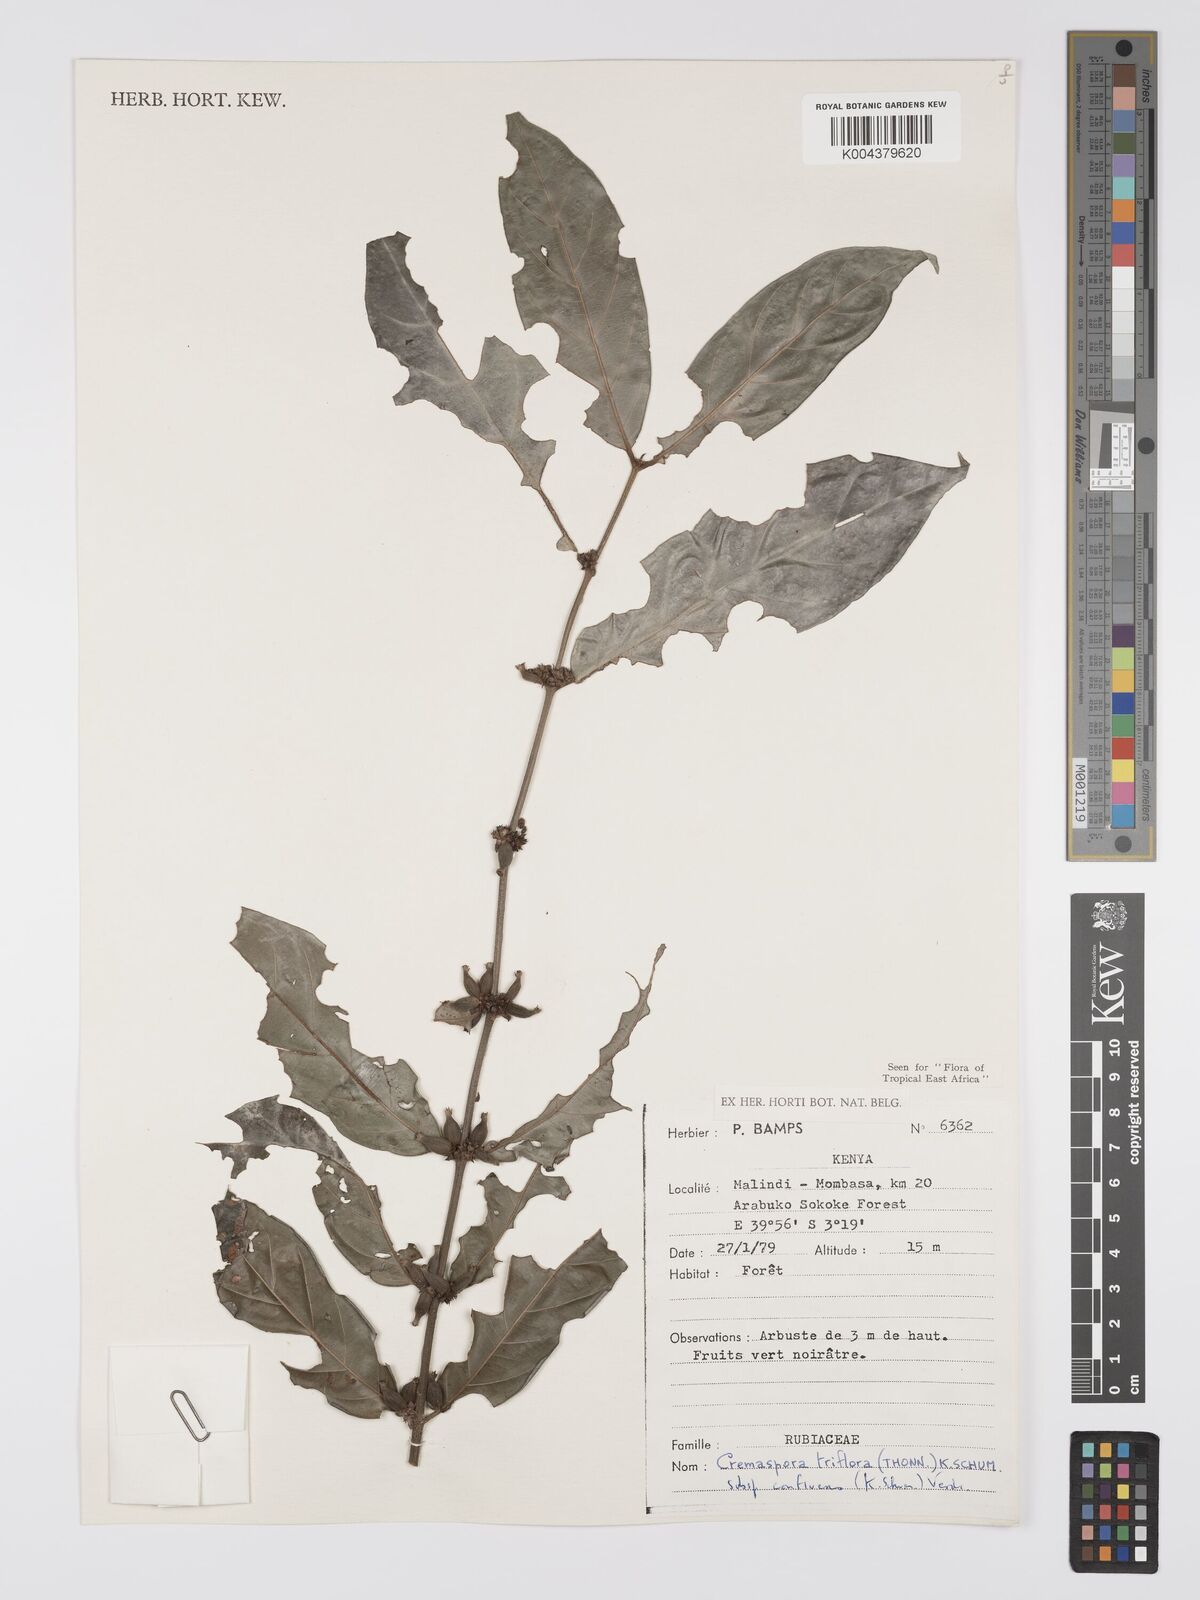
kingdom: Plantae
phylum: Tracheophyta
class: Magnoliopsida
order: Gentianales
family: Rubiaceae
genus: Cremaspora
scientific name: Cremaspora triflora
